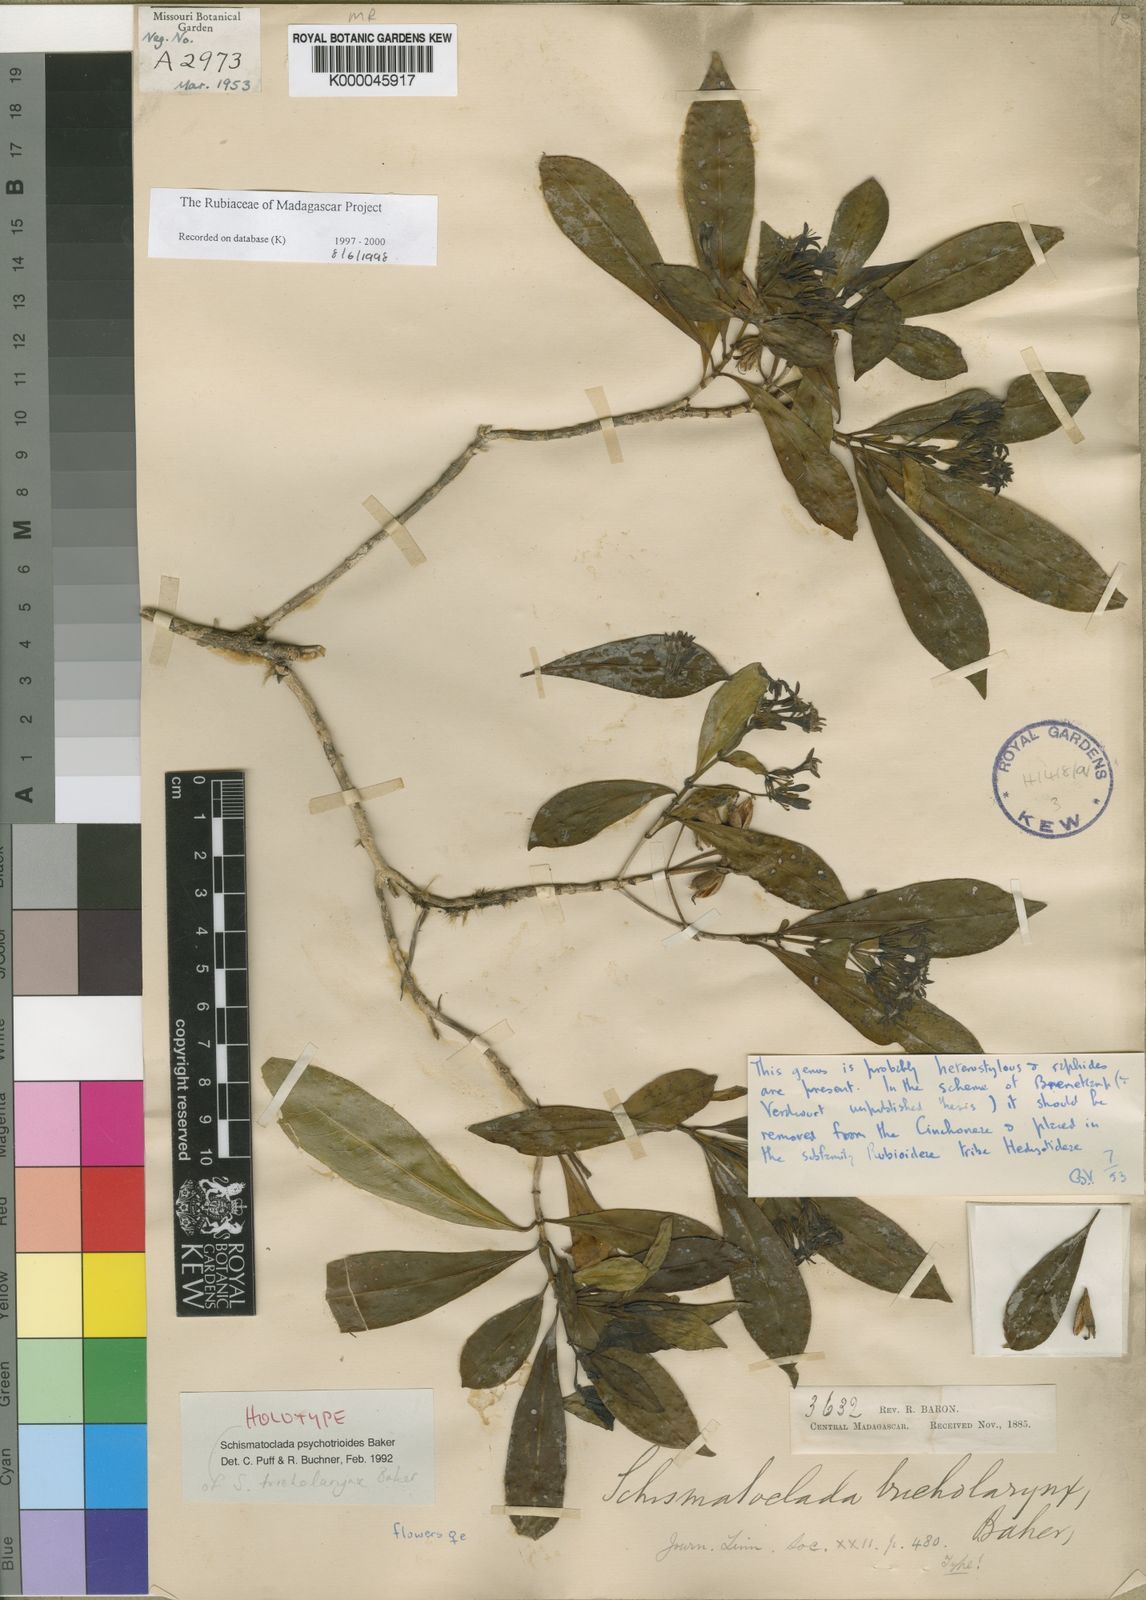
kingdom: Plantae
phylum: Tracheophyta
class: Magnoliopsida
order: Gentianales
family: Rubiaceae
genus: Schismatoclada
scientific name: Schismatoclada psychotrioides
